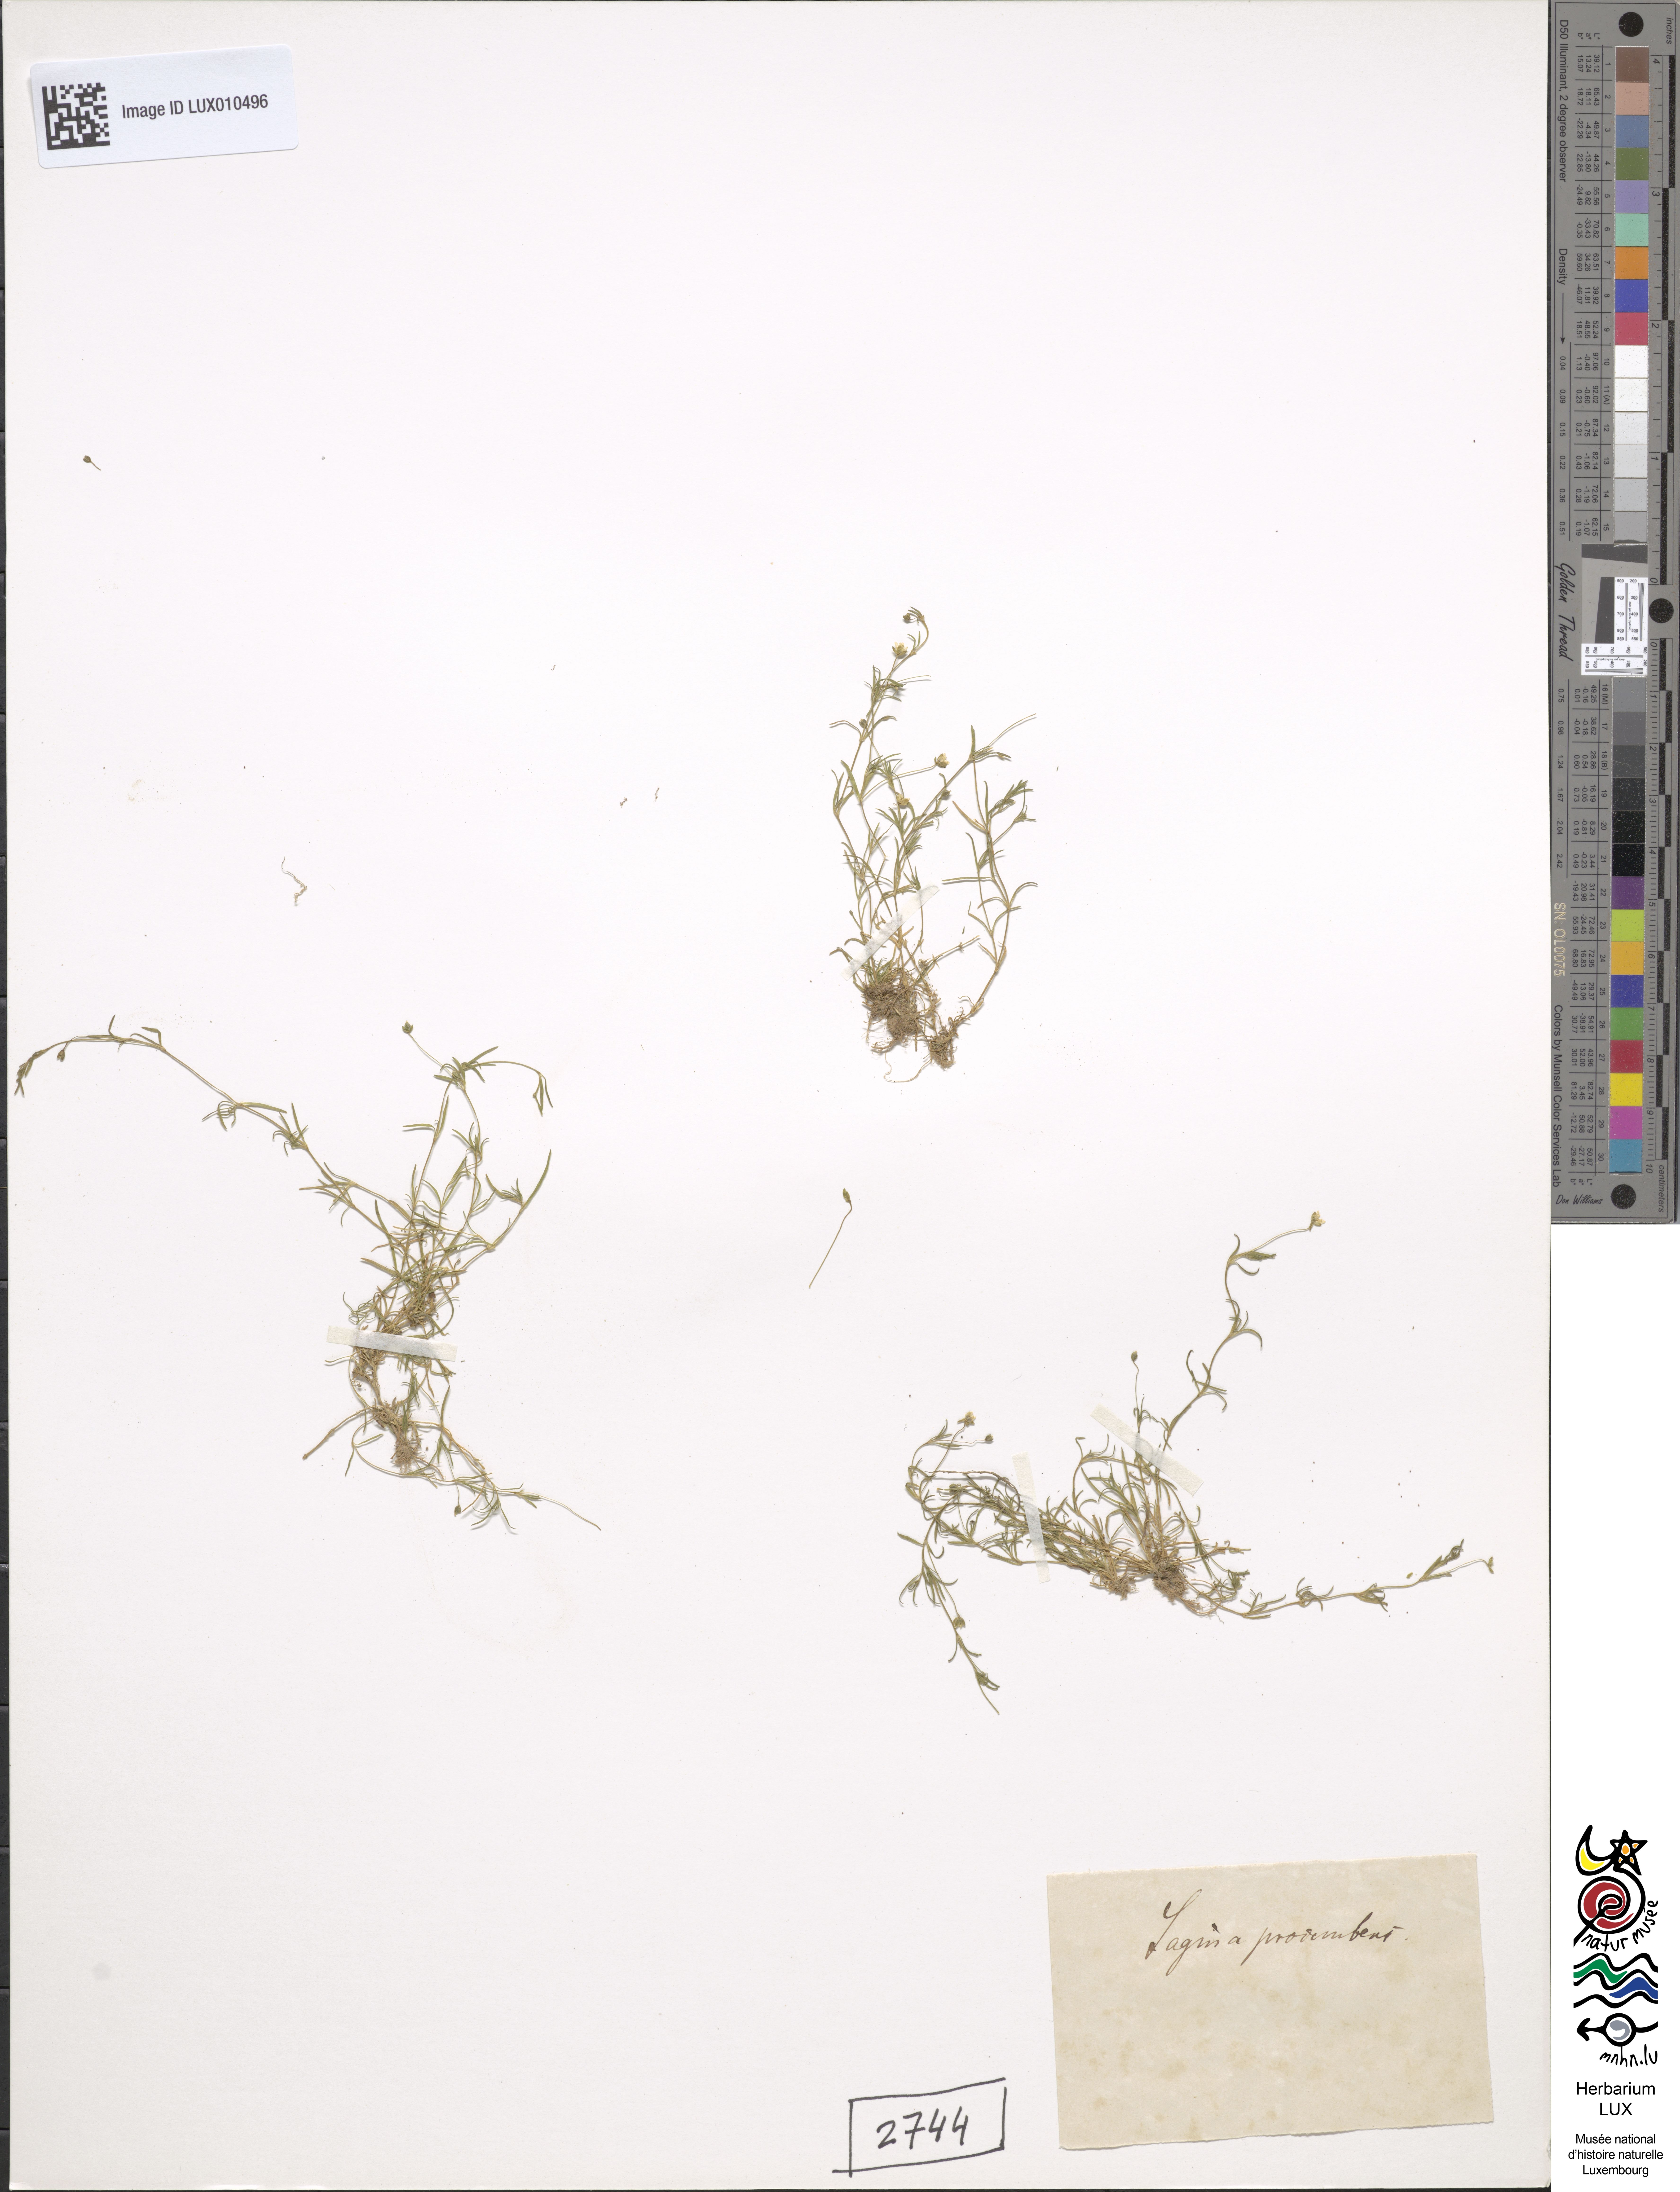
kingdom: Plantae
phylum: Tracheophyta
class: Magnoliopsida
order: Caryophyllales
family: Caryophyllaceae
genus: Sagina
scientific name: Sagina procumbens
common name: Procumbent pearlwort
